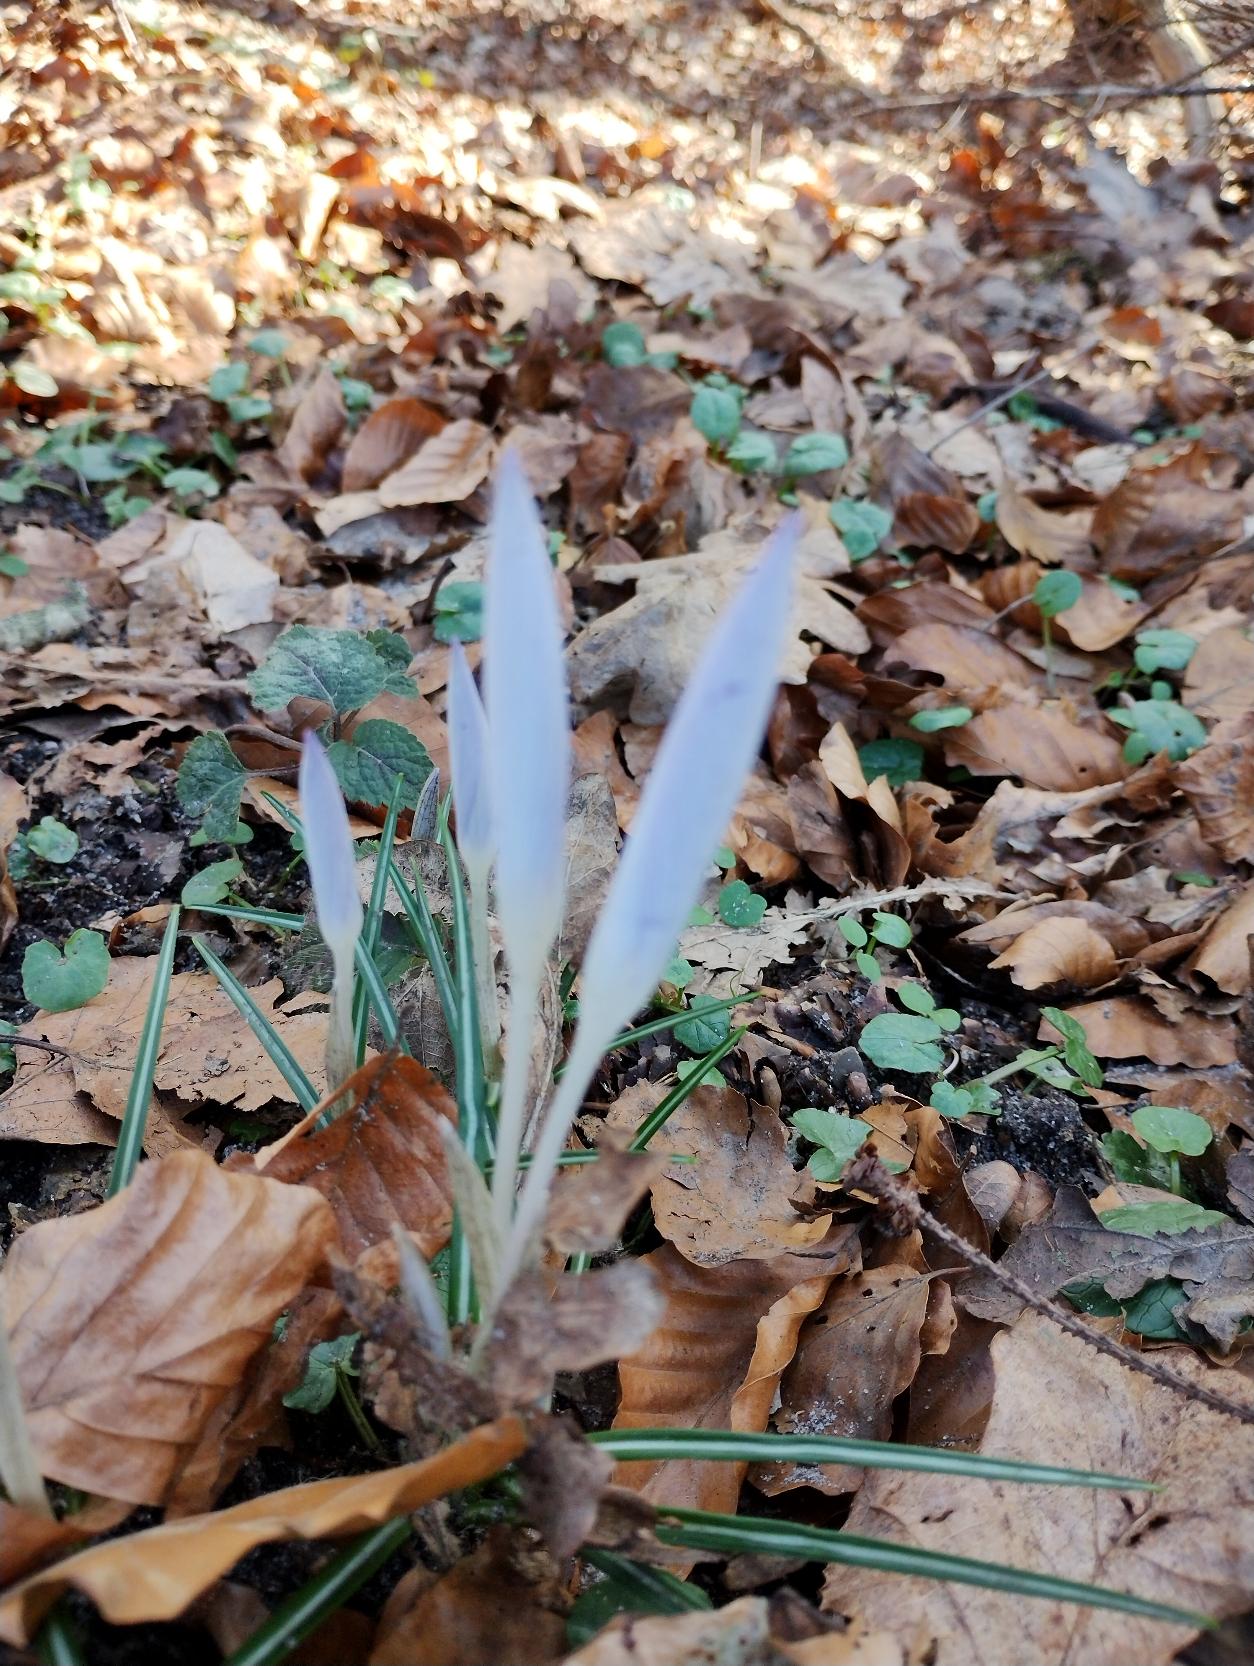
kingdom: Plantae
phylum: Tracheophyta
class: Liliopsida
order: Asparagales
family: Iridaceae
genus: Crocus
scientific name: Crocus tommasinianus
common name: Sne-krokus
